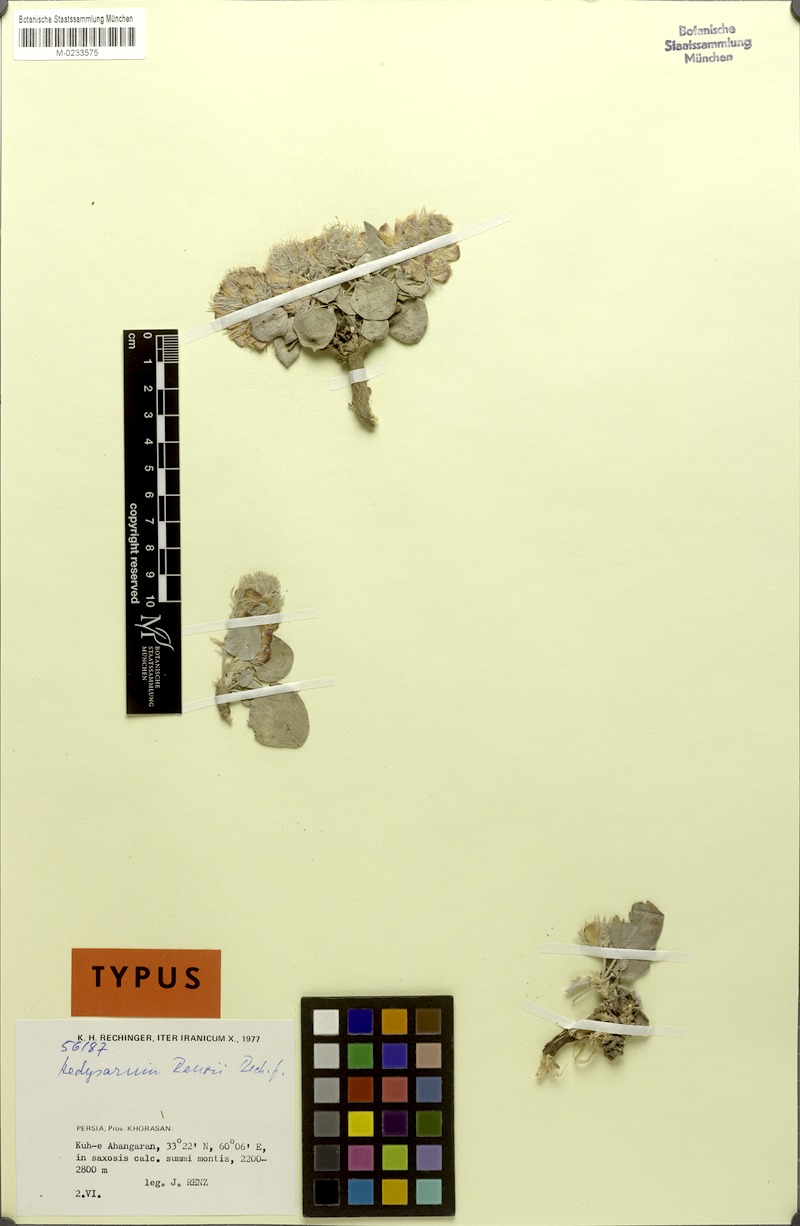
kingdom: Plantae
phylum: Tracheophyta
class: Magnoliopsida
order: Fabales
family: Fabaceae
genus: Hedysarum
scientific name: Hedysarum renzii
